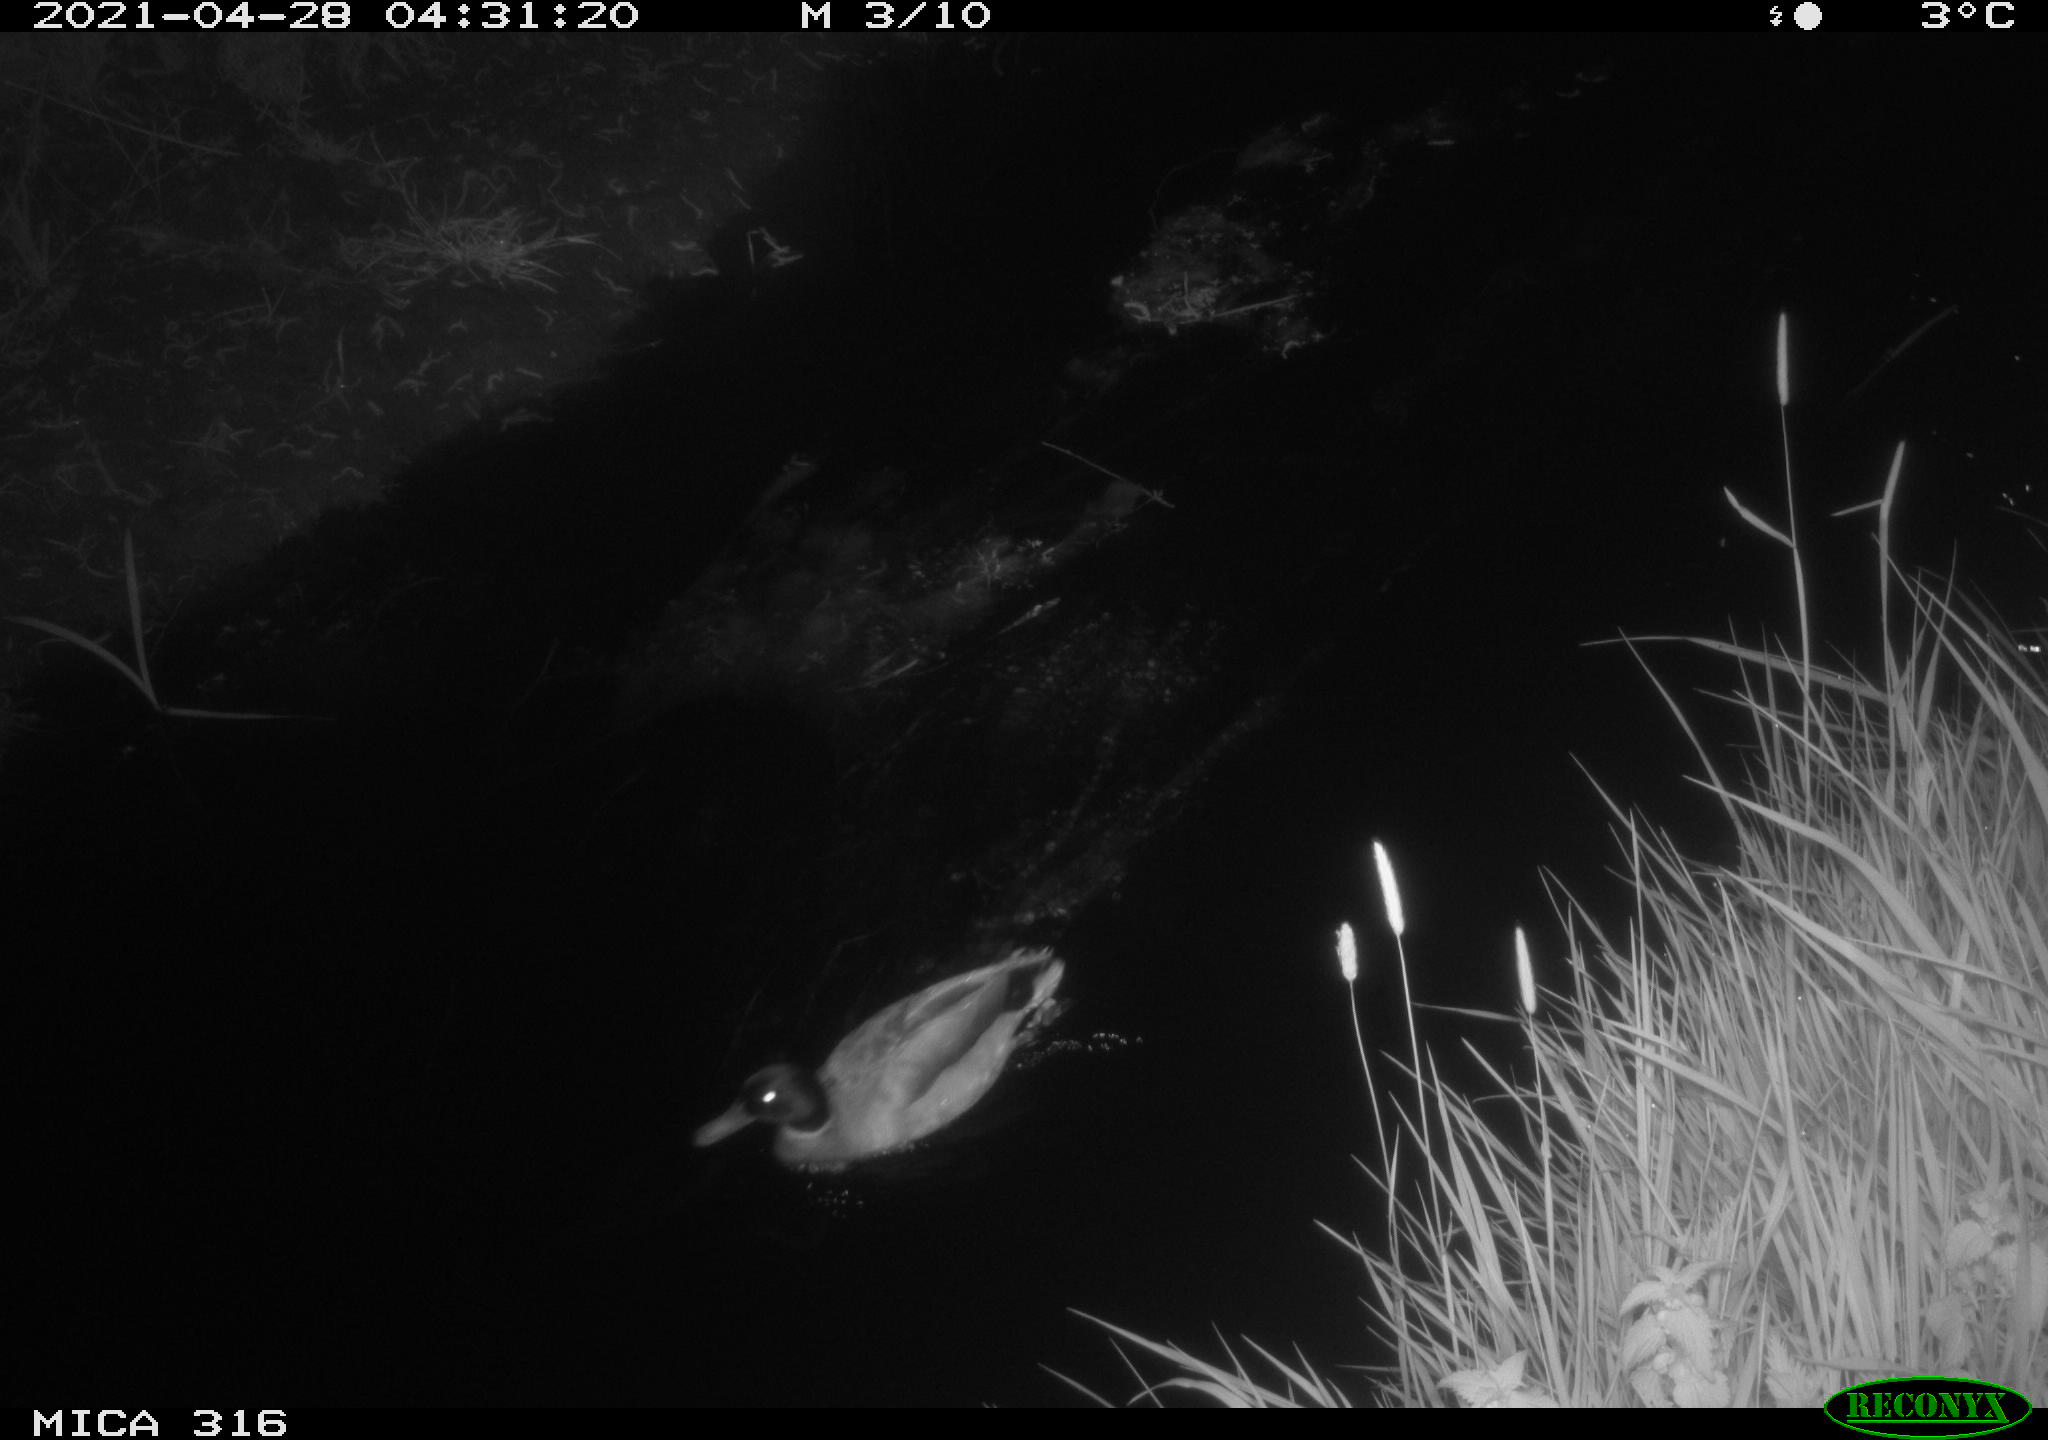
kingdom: Animalia
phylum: Chordata
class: Aves
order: Anseriformes
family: Anatidae
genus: Anas
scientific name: Anas platyrhynchos
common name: Mallard
